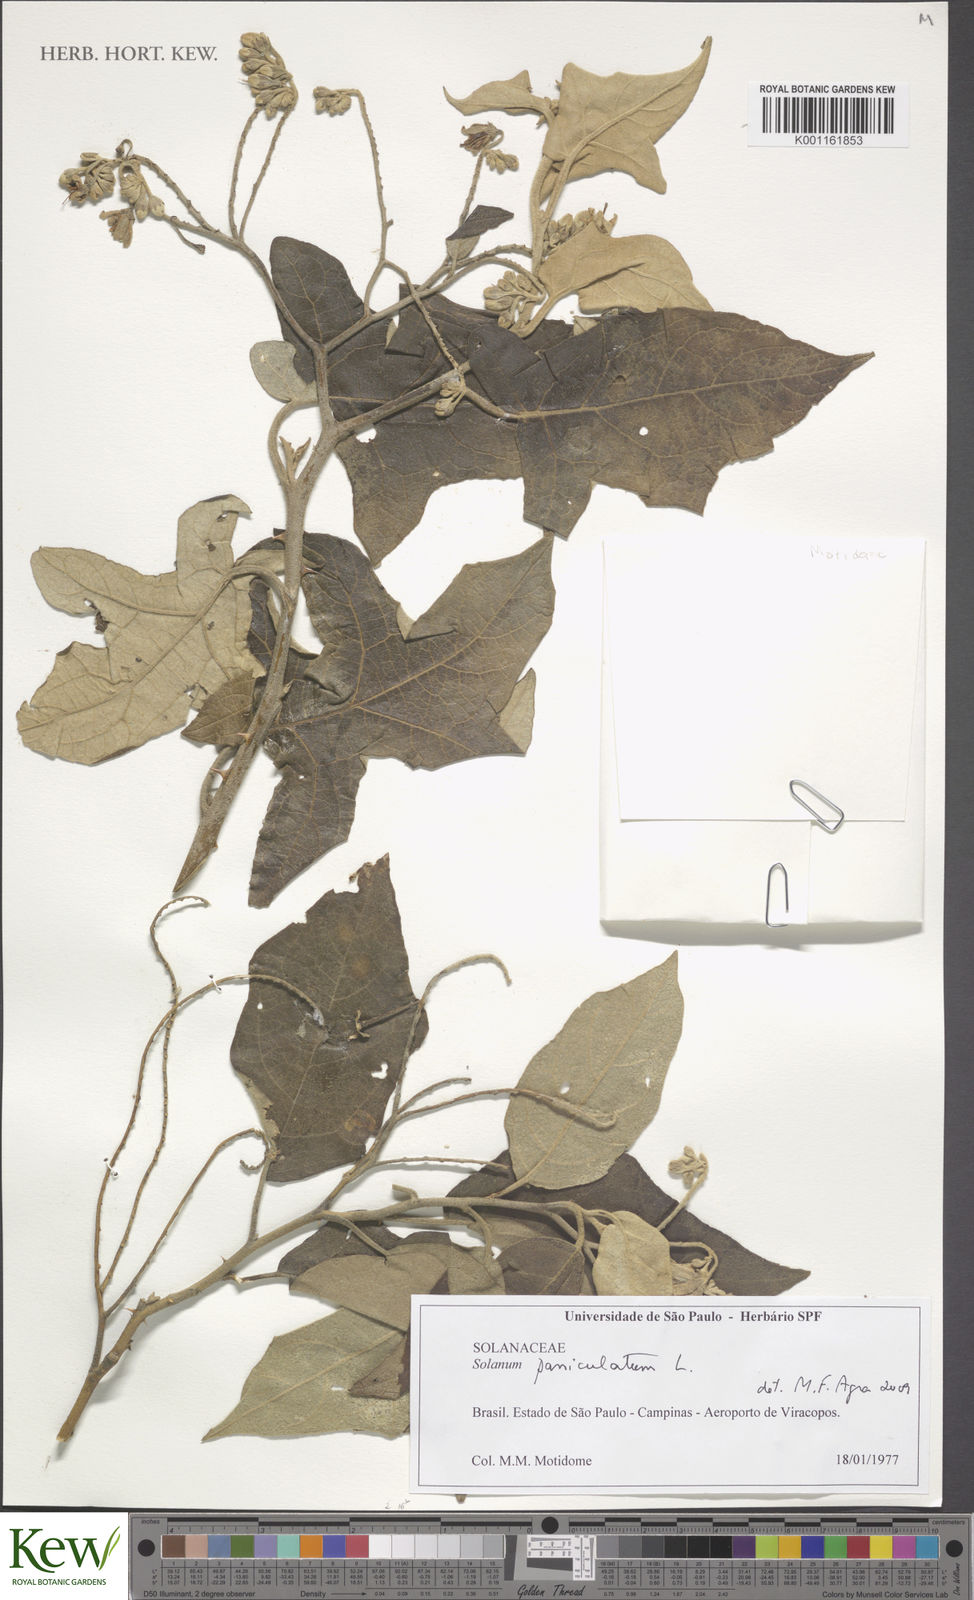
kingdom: Plantae
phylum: Tracheophyta
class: Magnoliopsida
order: Solanales
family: Solanaceae
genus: Solanum
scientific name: Solanum paniculatum
